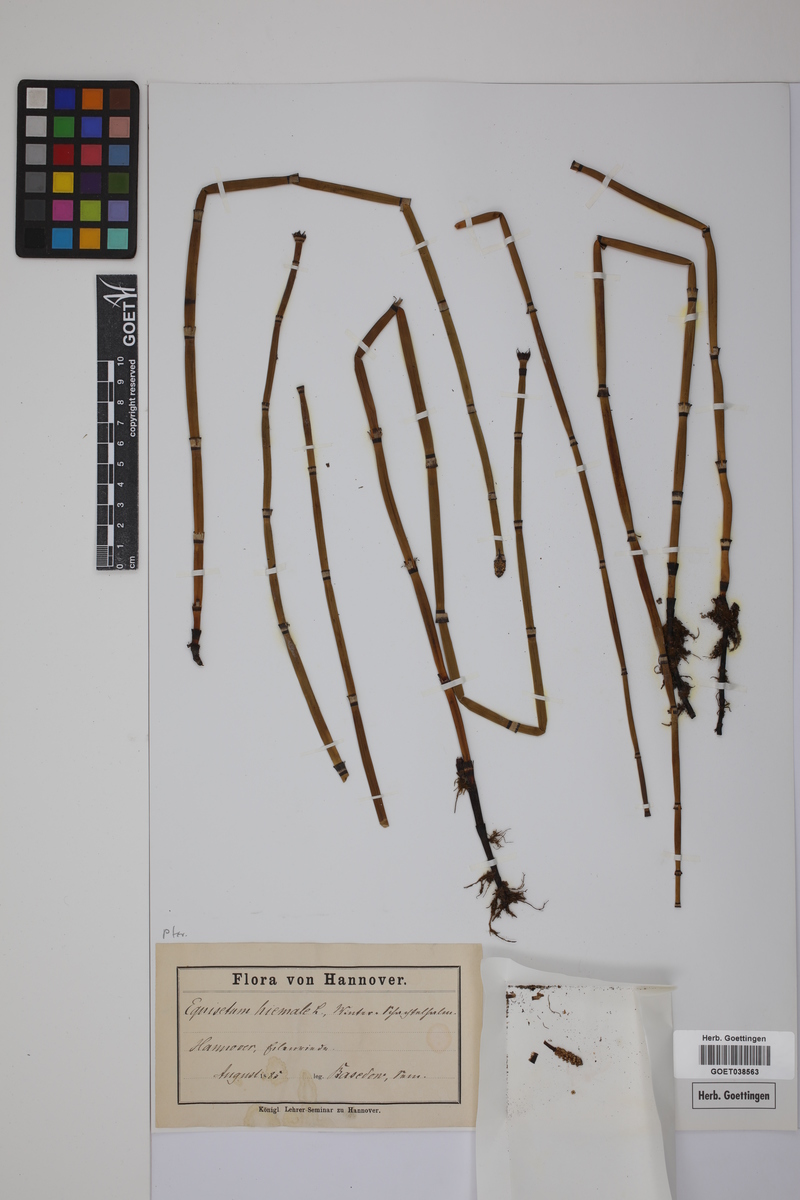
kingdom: Plantae
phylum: Tracheophyta
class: Polypodiopsida
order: Equisetales
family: Equisetaceae
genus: Equisetum
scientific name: Equisetum hyemale
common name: Rough horsetail
